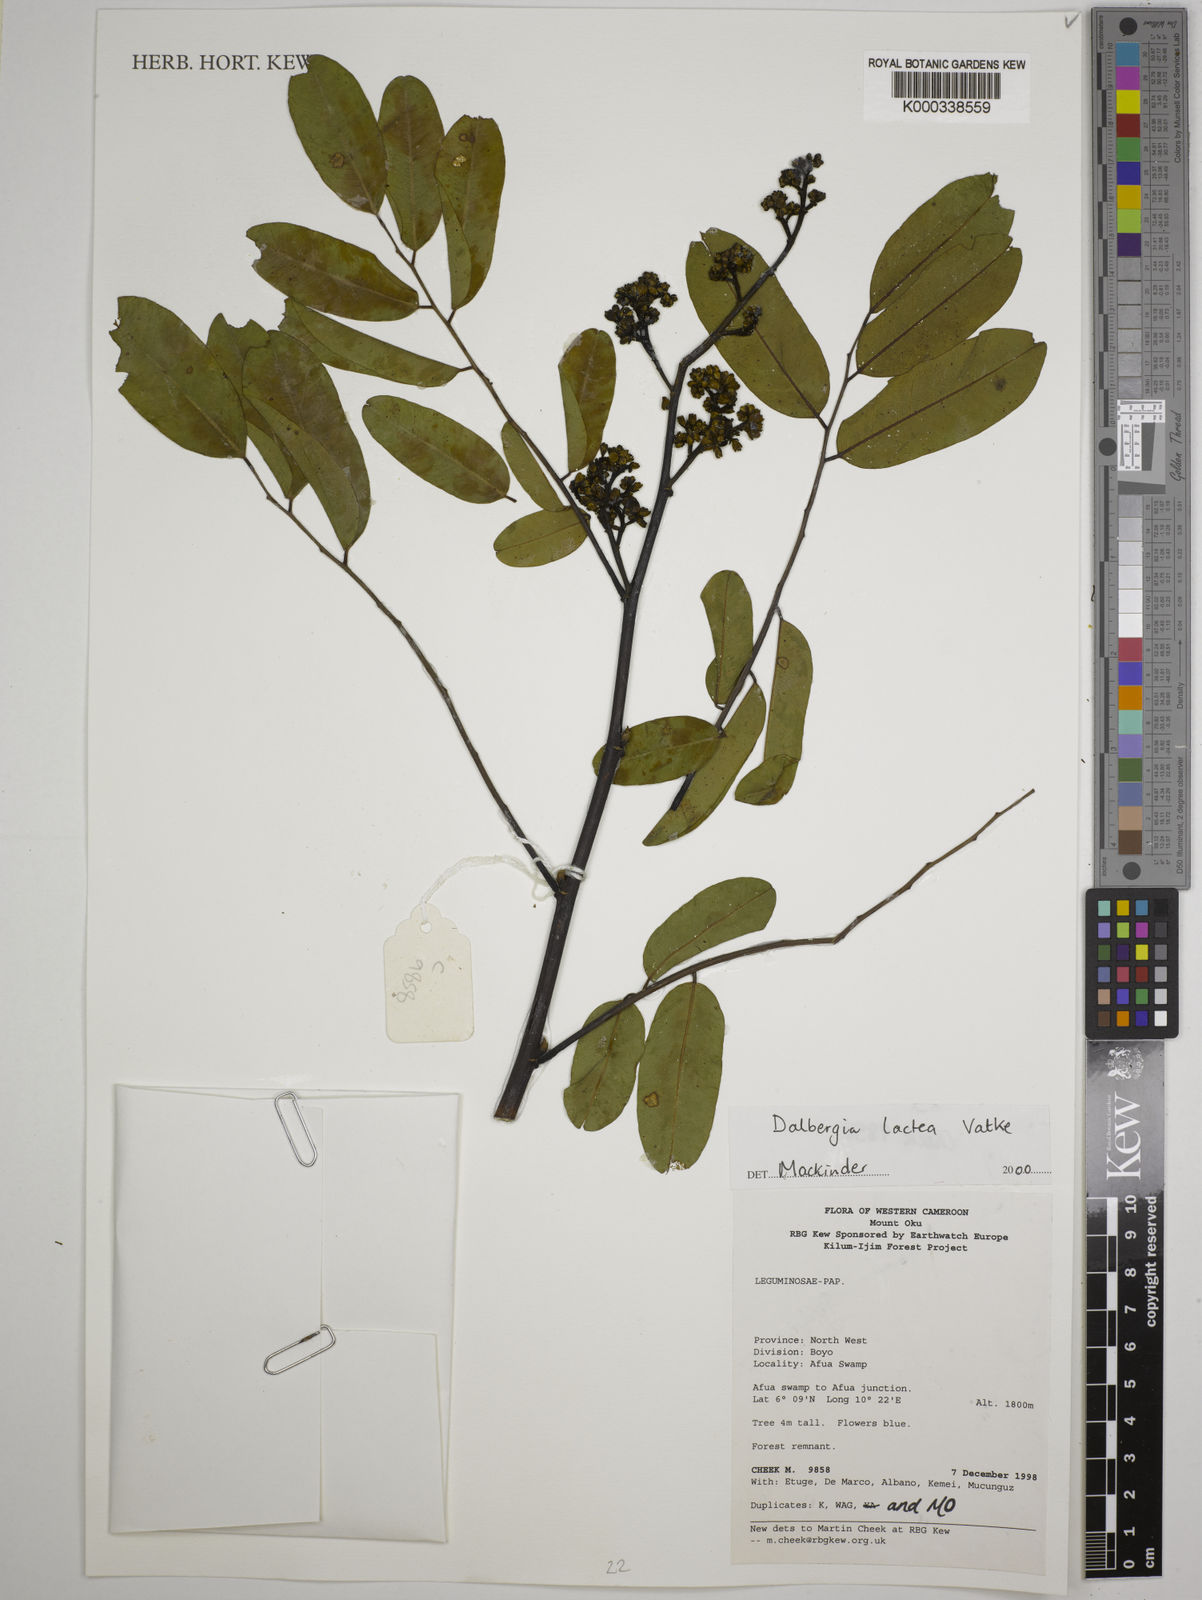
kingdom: Plantae
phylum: Tracheophyta
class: Magnoliopsida
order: Fabales
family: Fabaceae
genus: Dalbergia
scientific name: Dalbergia lactea
